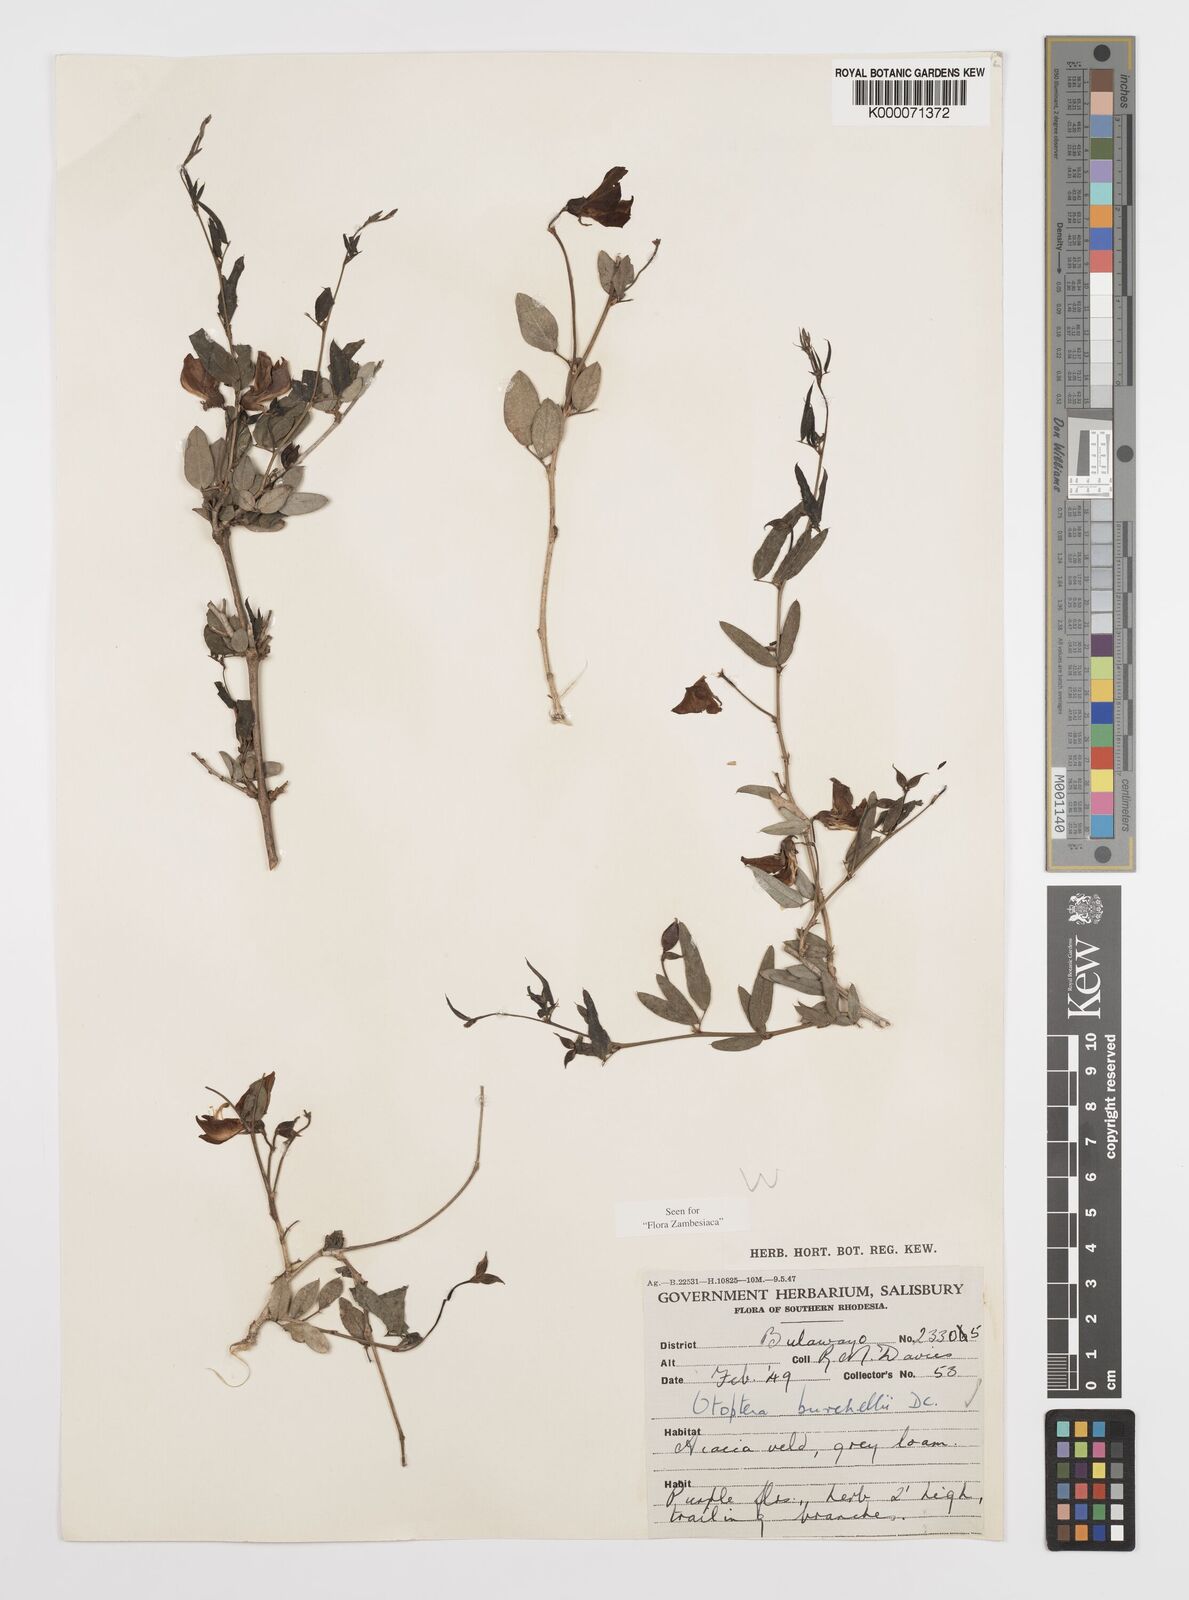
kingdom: Plantae
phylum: Tracheophyta
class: Magnoliopsida
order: Fabales
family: Fabaceae
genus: Otoptera
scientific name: Otoptera burchellii
